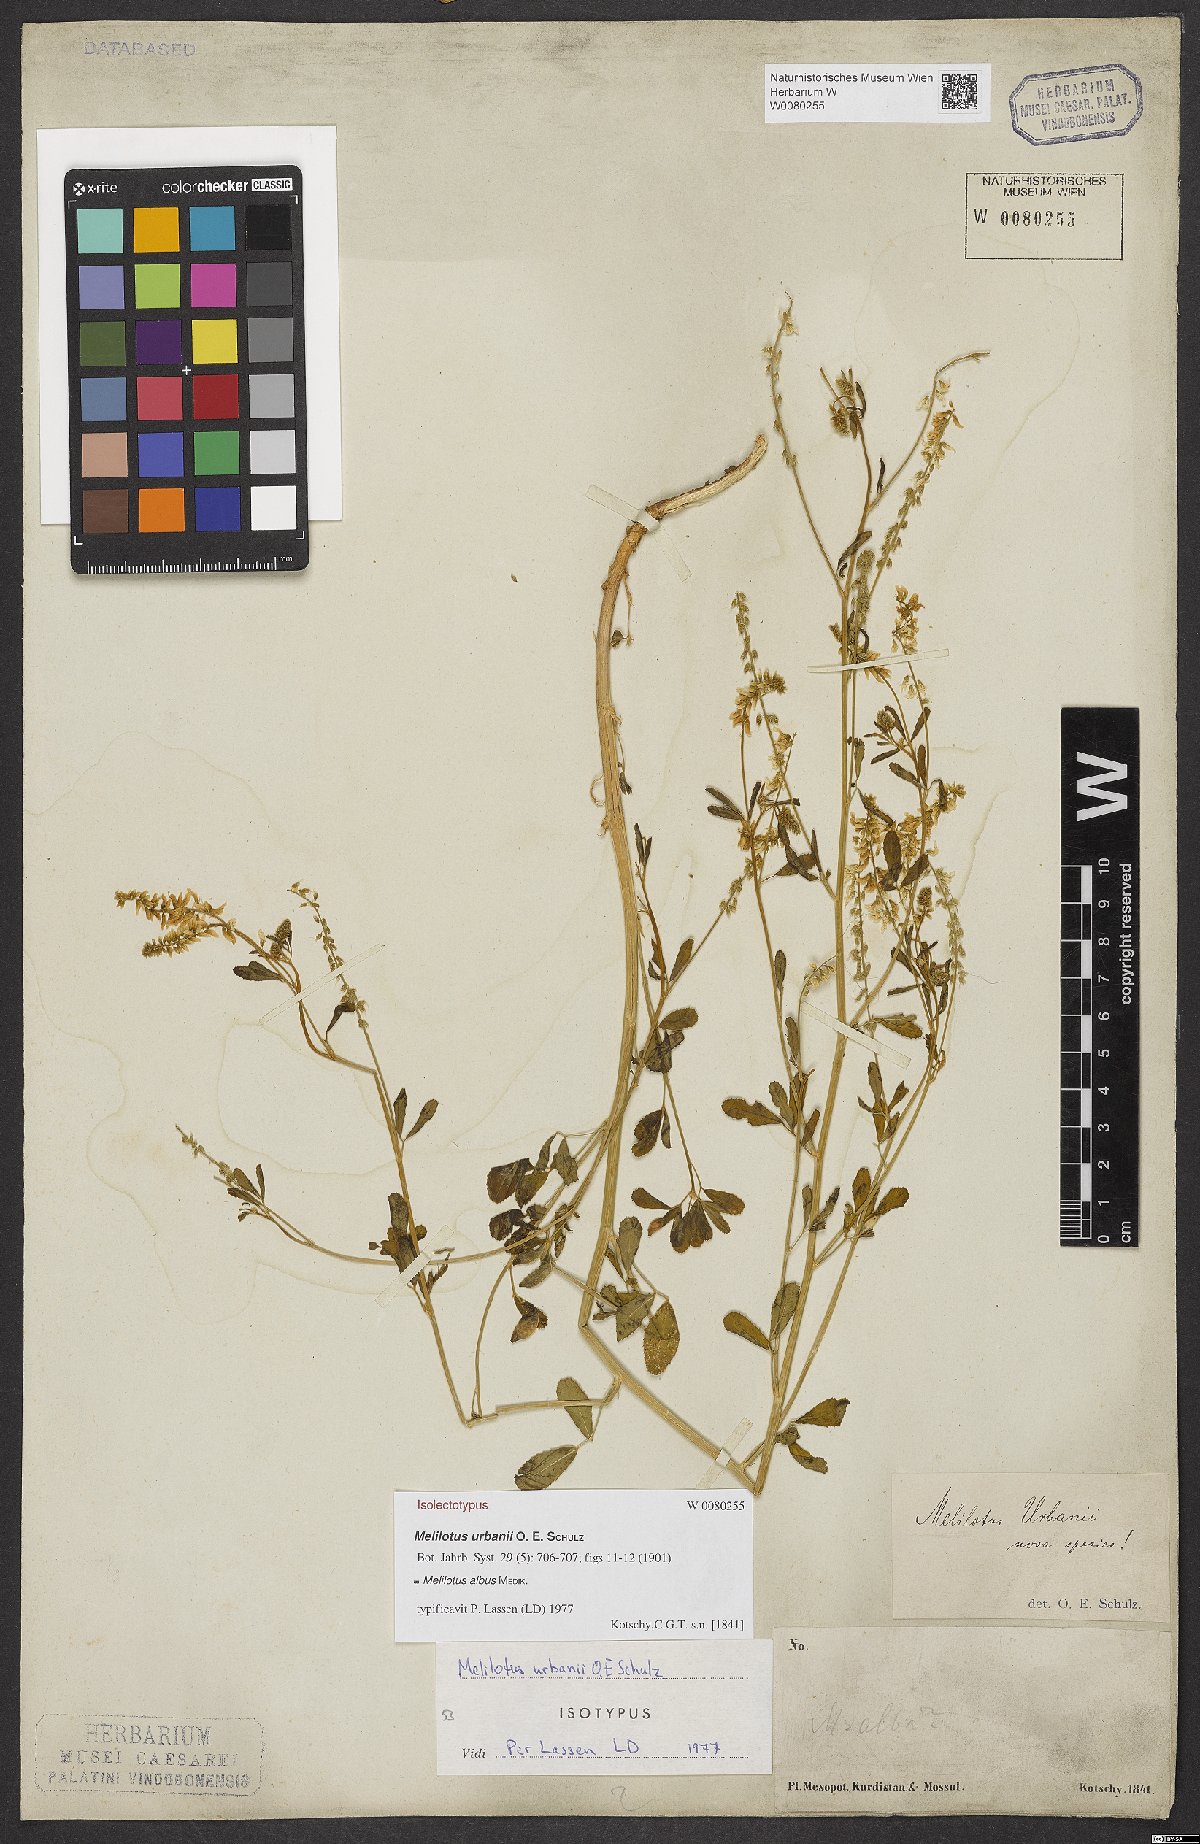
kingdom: Plantae
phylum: Tracheophyta
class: Magnoliopsida
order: Fabales
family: Fabaceae
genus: Melilotus
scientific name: Melilotus albus
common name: White melilot
